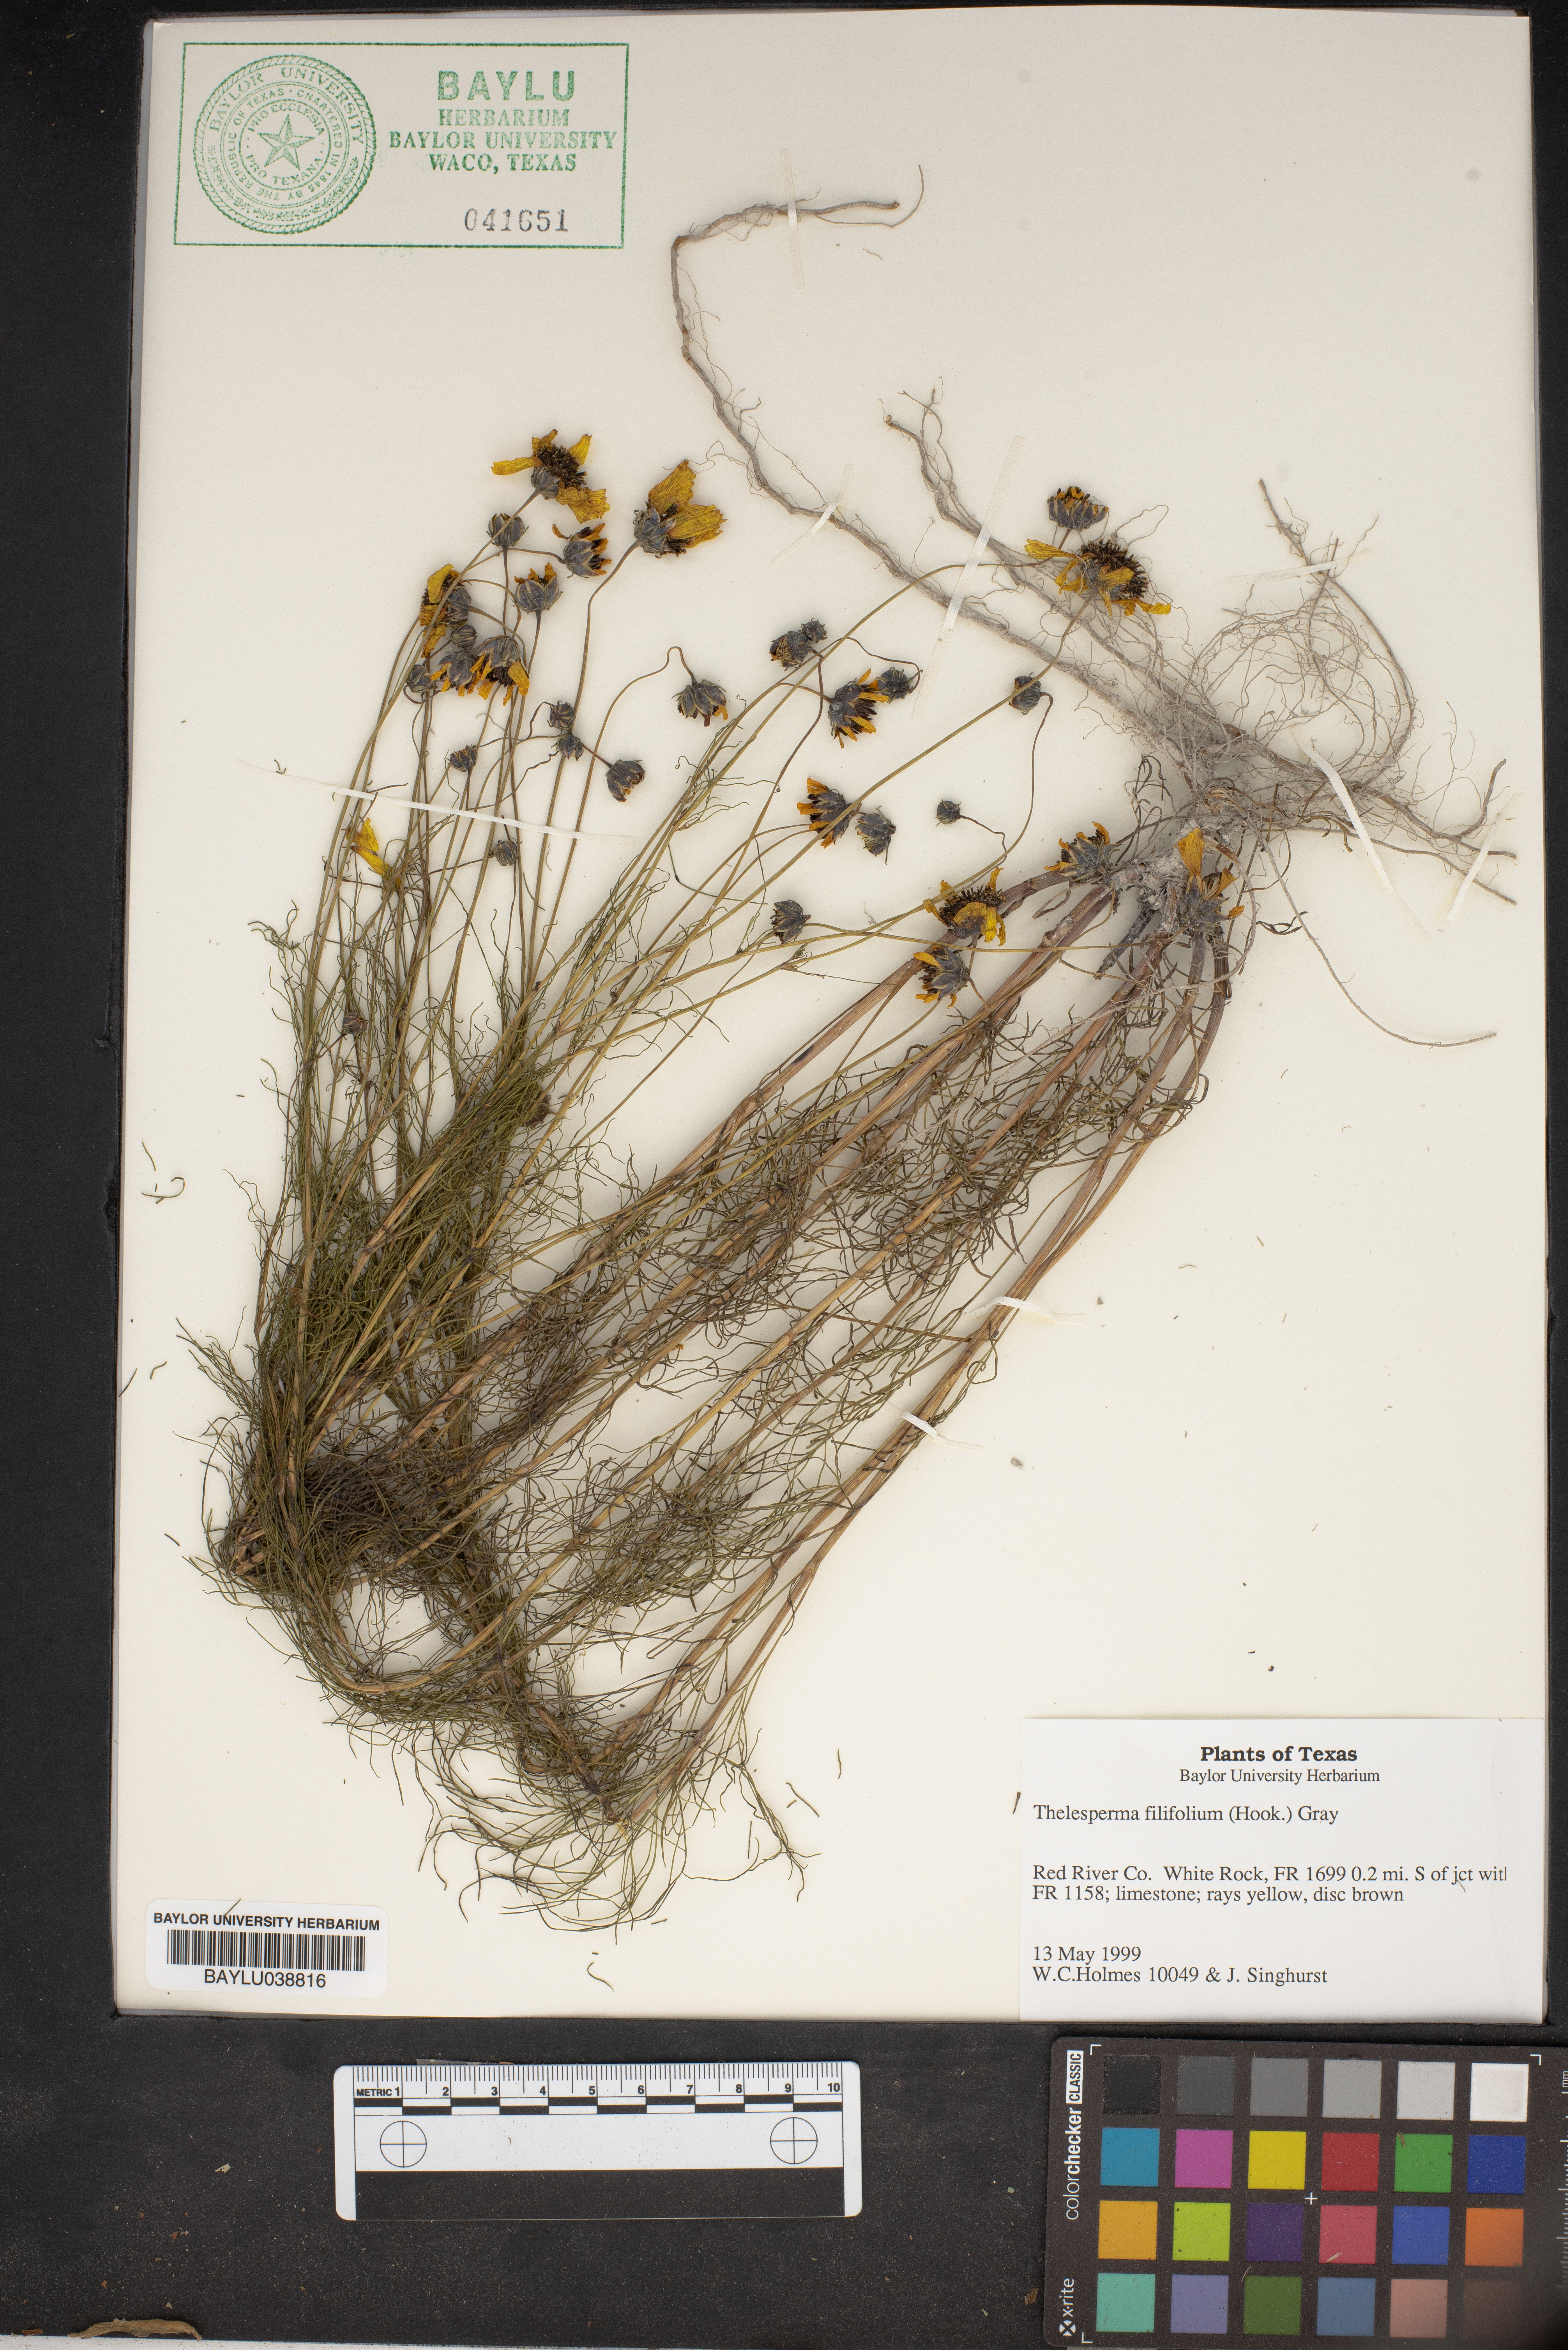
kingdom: Plantae
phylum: Tracheophyta
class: Magnoliopsida
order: Asterales
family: Asteraceae
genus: Thelesperma
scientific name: Thelesperma filifolium
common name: Stiff greenthread
